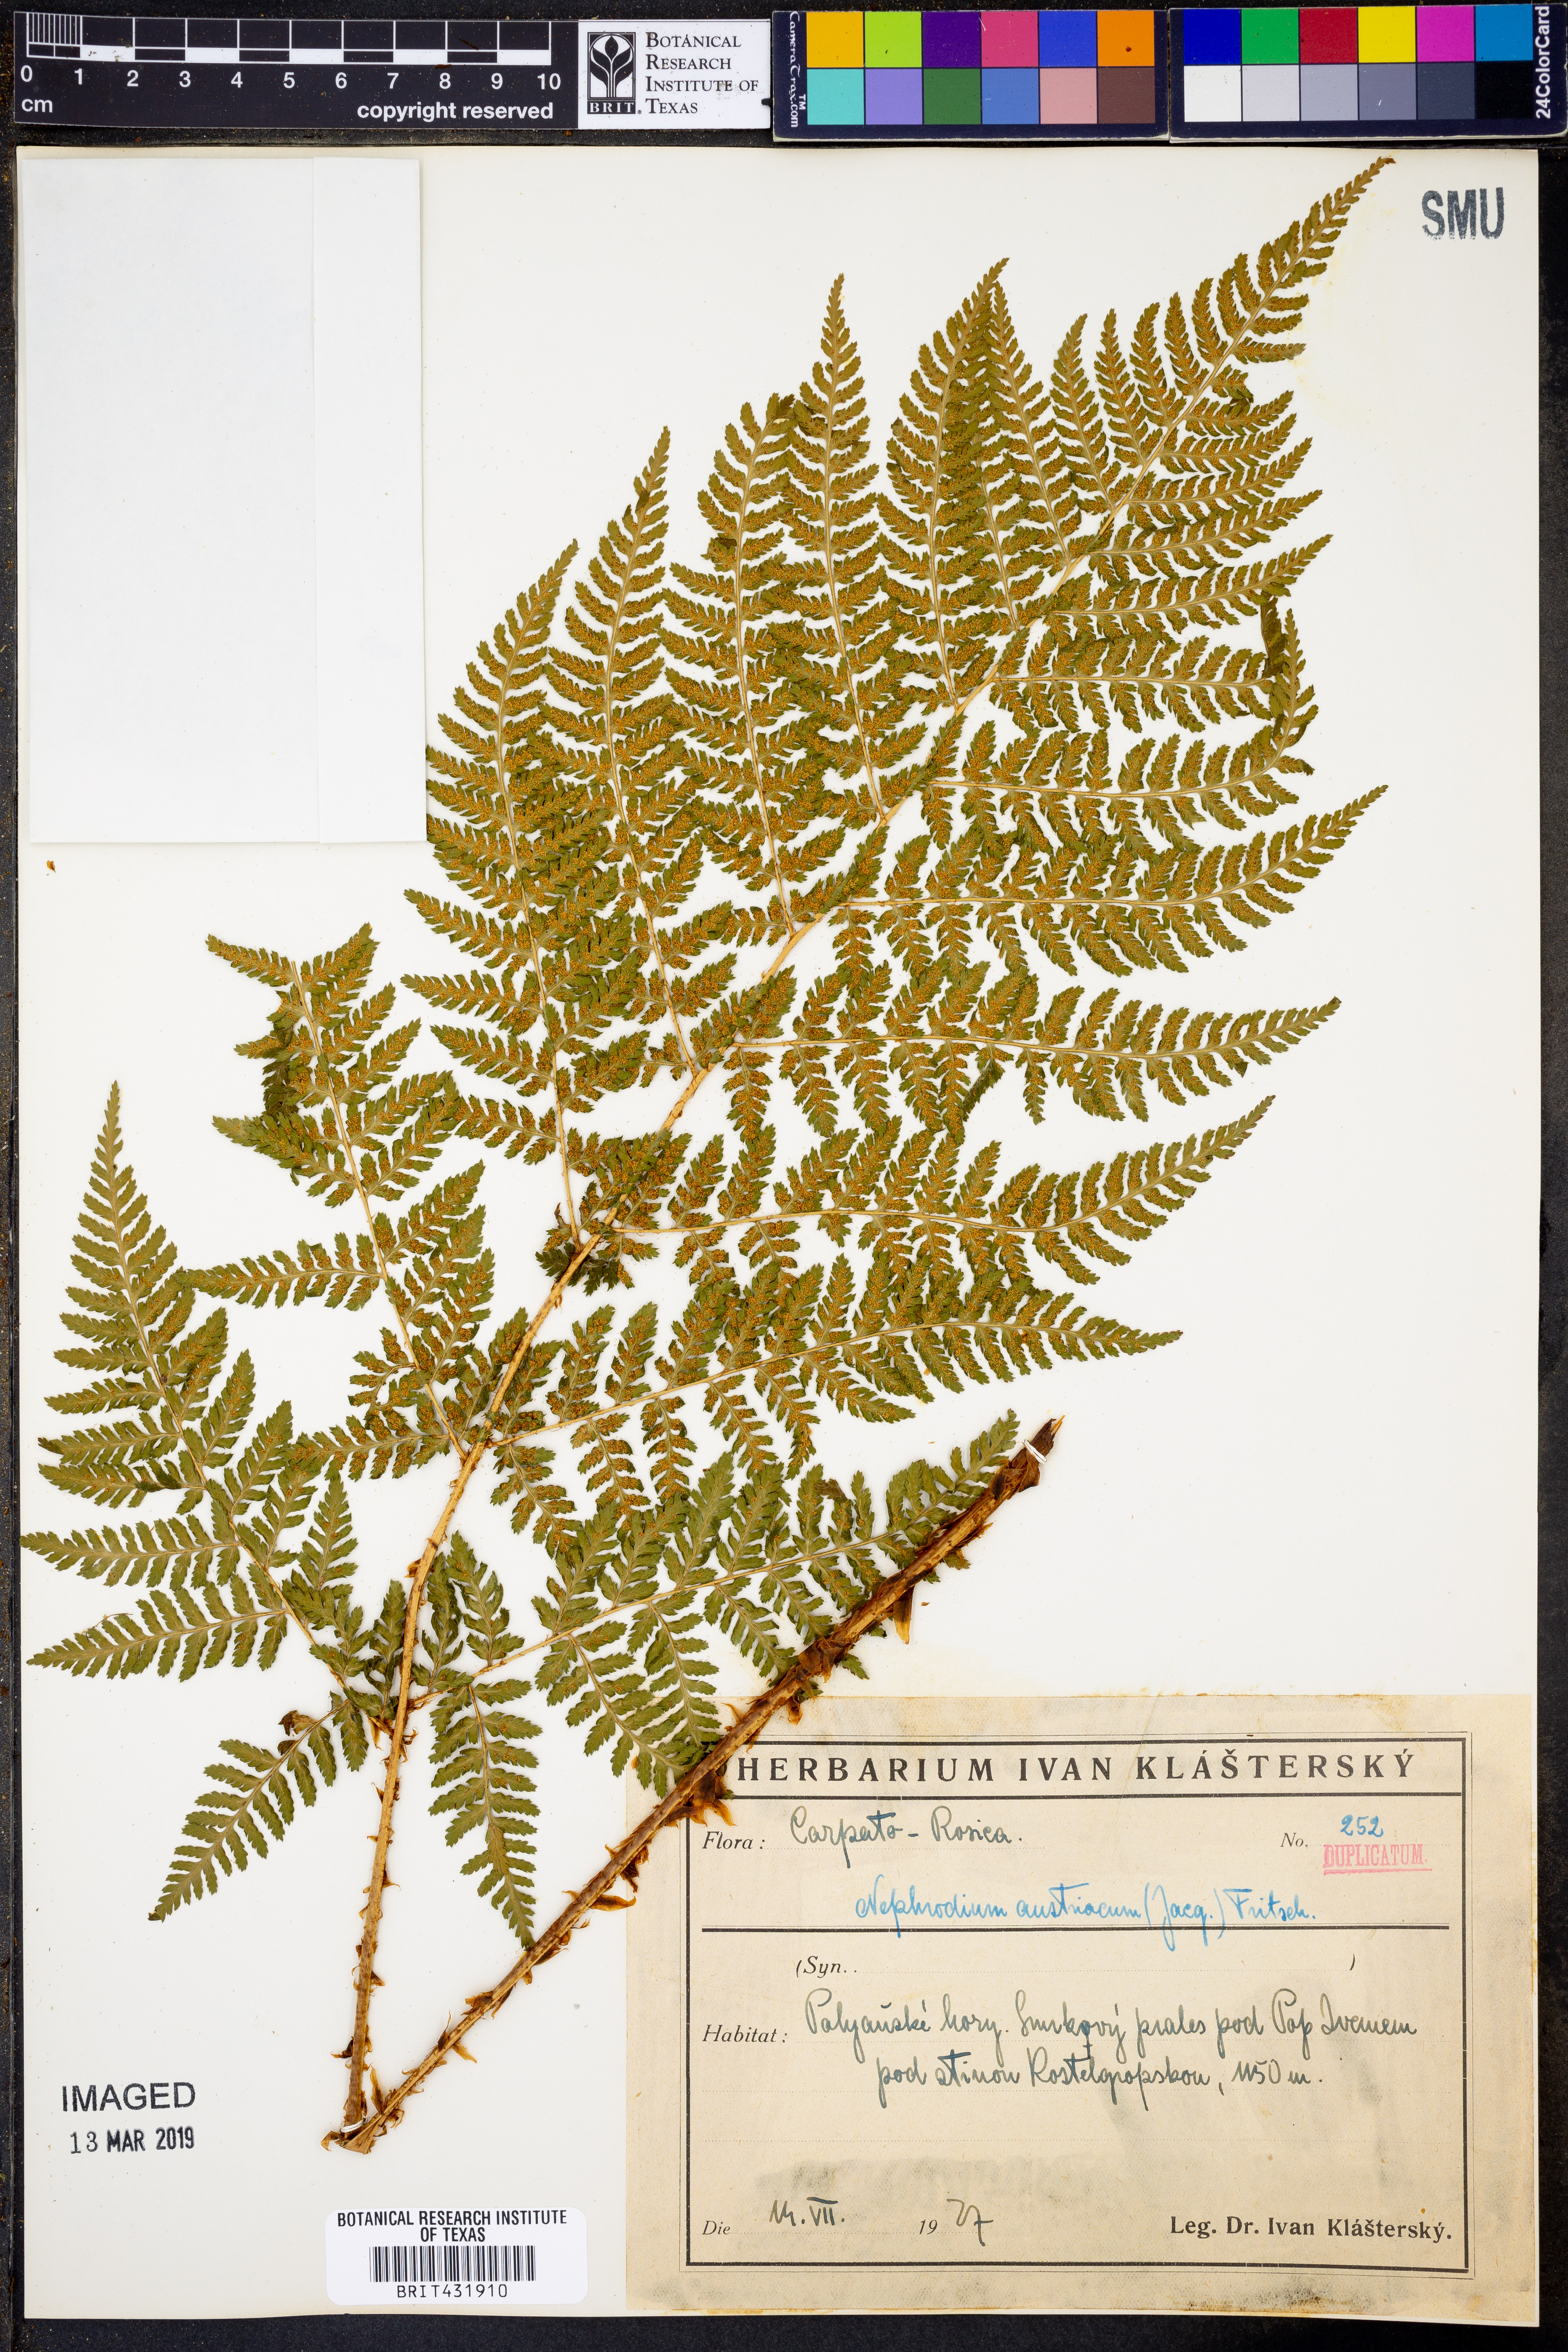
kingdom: Plantae
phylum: Tracheophyta
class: Polypodiopsida
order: Polypodiales
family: Dryopteridaceae
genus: Dryopteris
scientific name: Dryopteris
